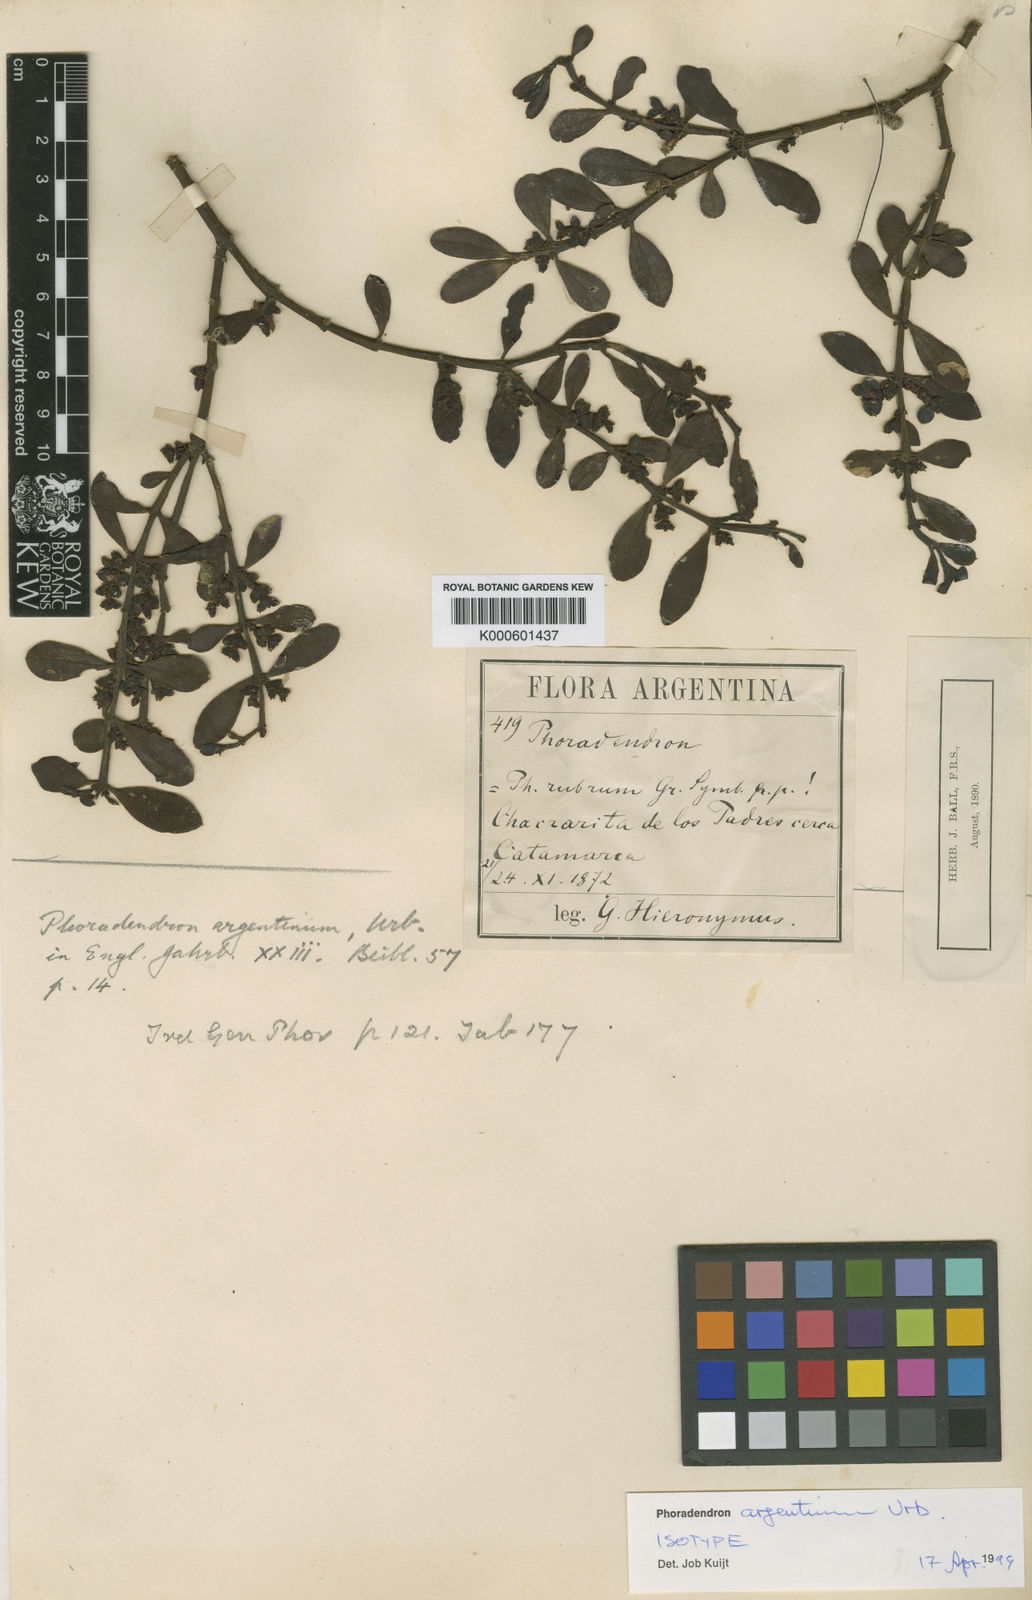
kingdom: Plantae
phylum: Tracheophyta
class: Magnoliopsida
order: Santalales
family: Viscaceae
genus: Phoradendron
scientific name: Phoradendron argentinum
